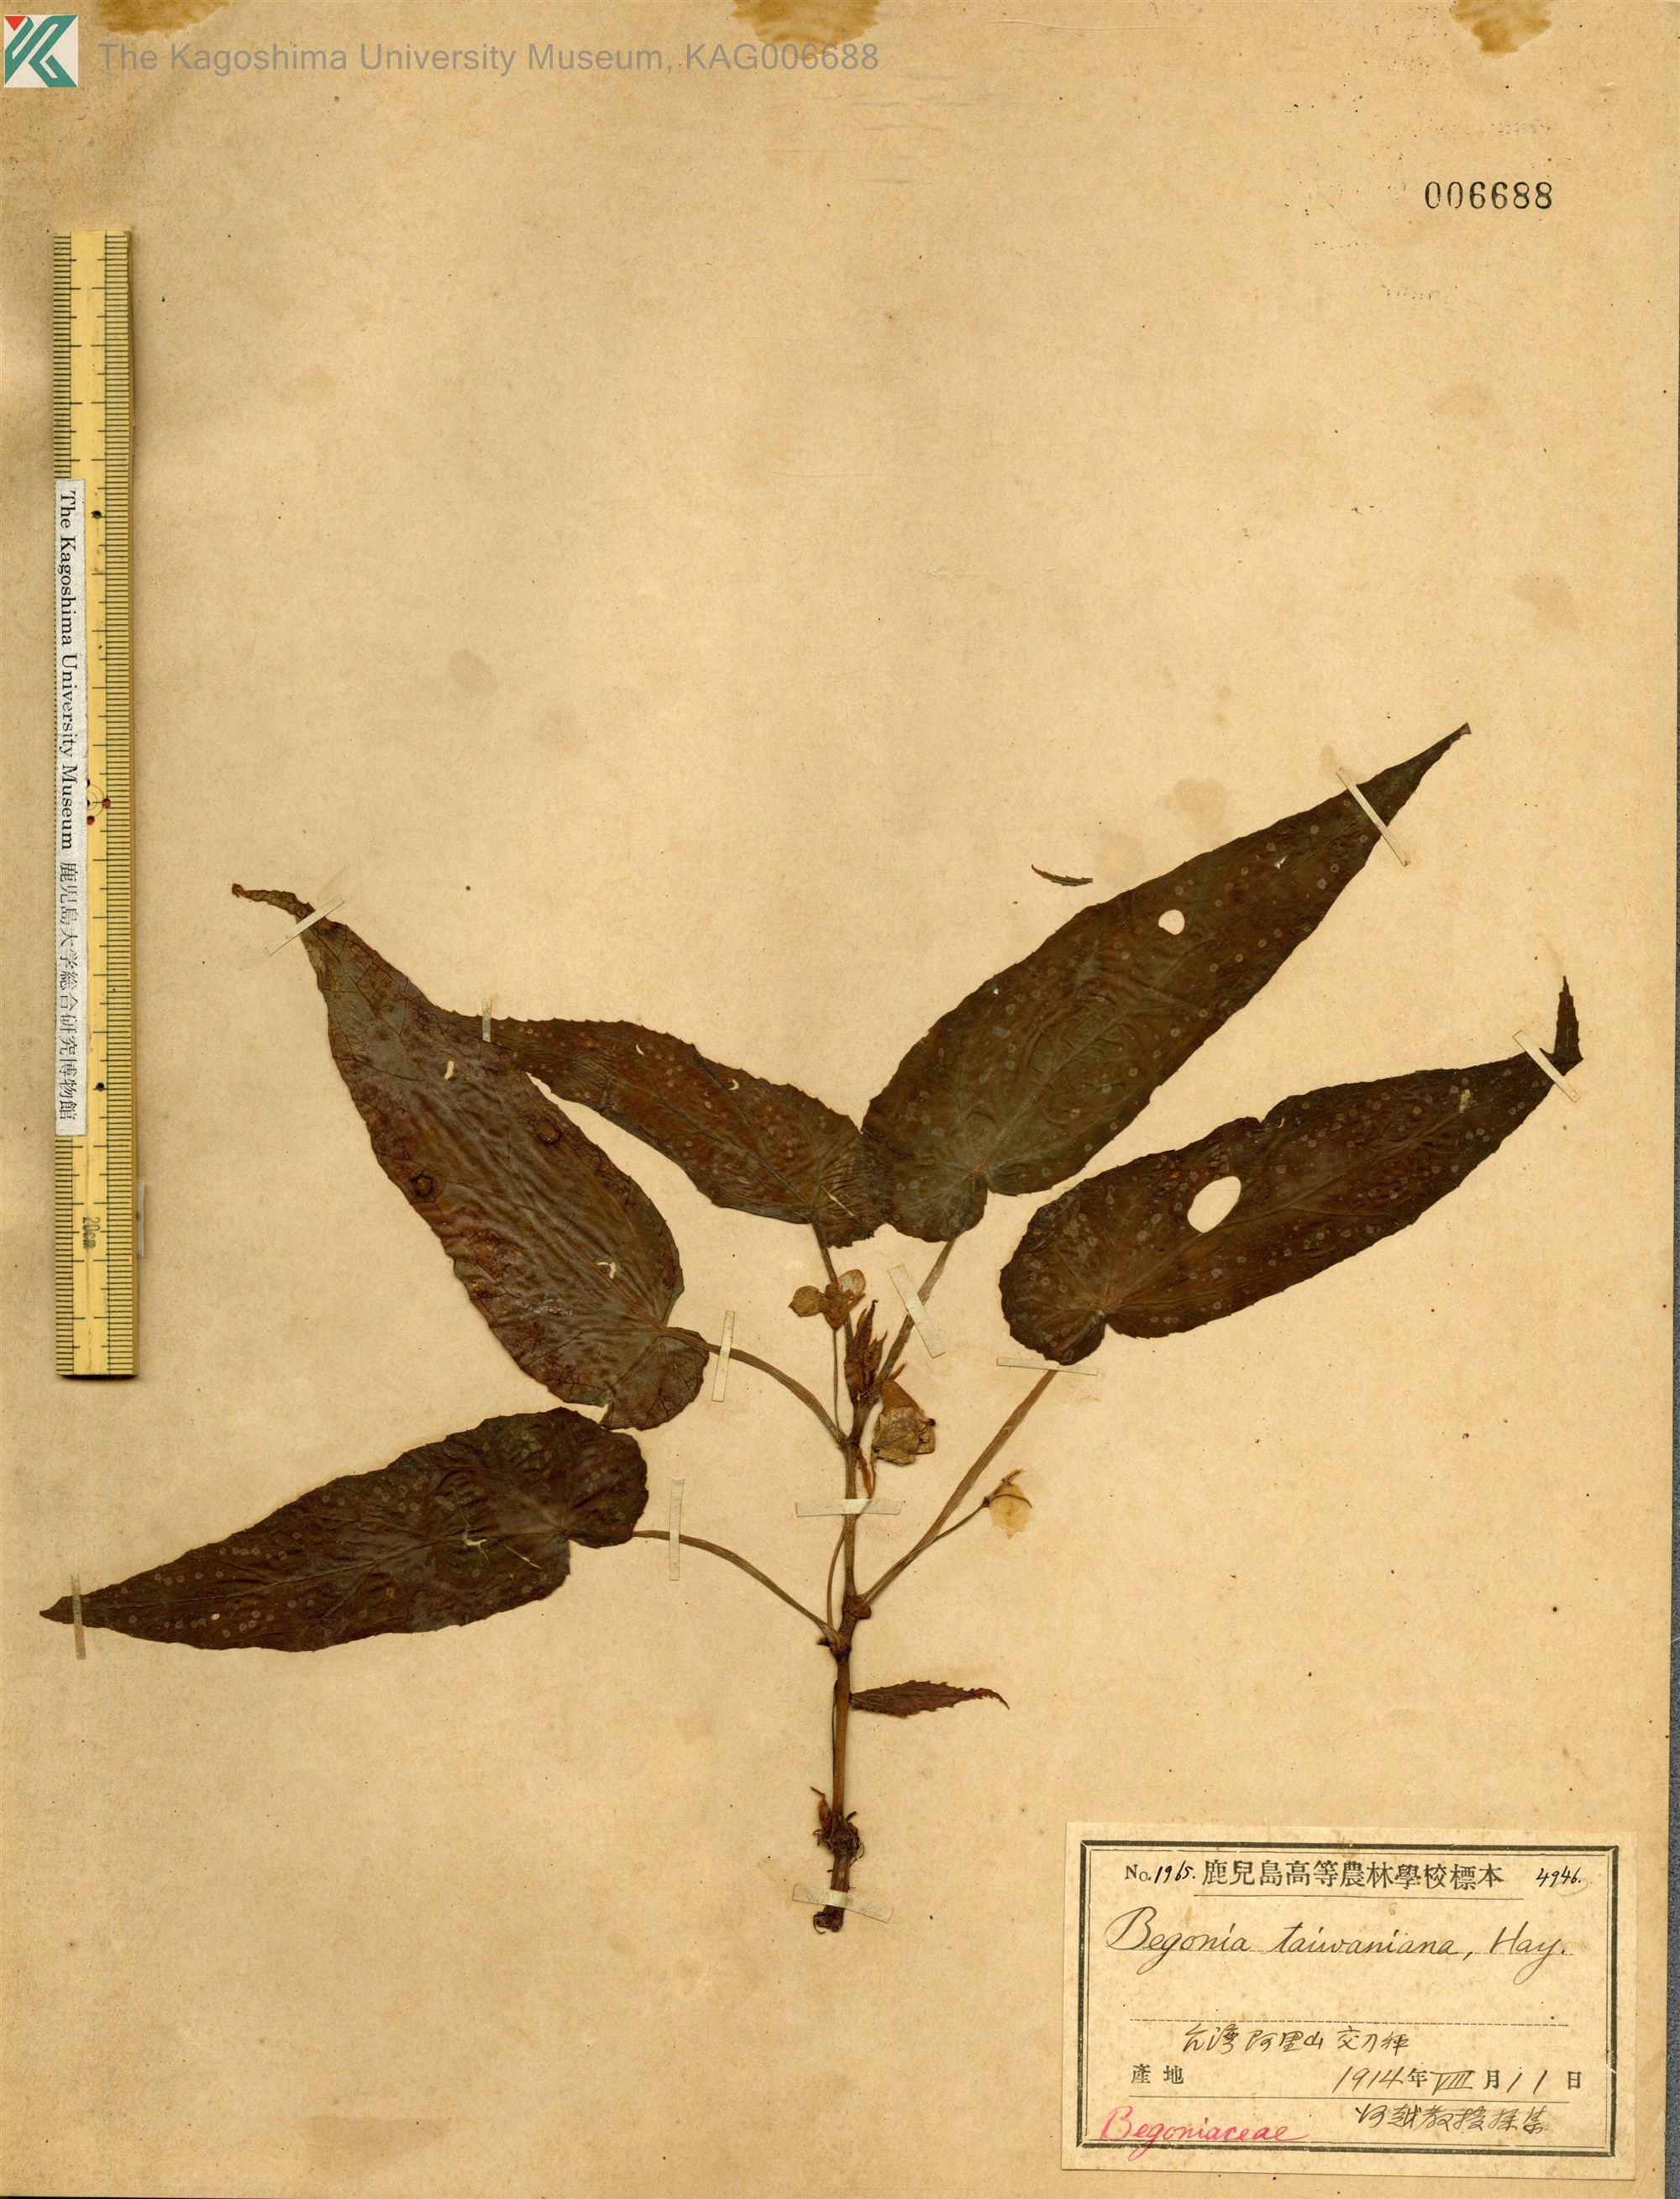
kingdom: Plantae
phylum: Tracheophyta
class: Magnoliopsida
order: Cucurbitales
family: Begoniaceae
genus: Begonia
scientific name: Begonia taiwaniana
